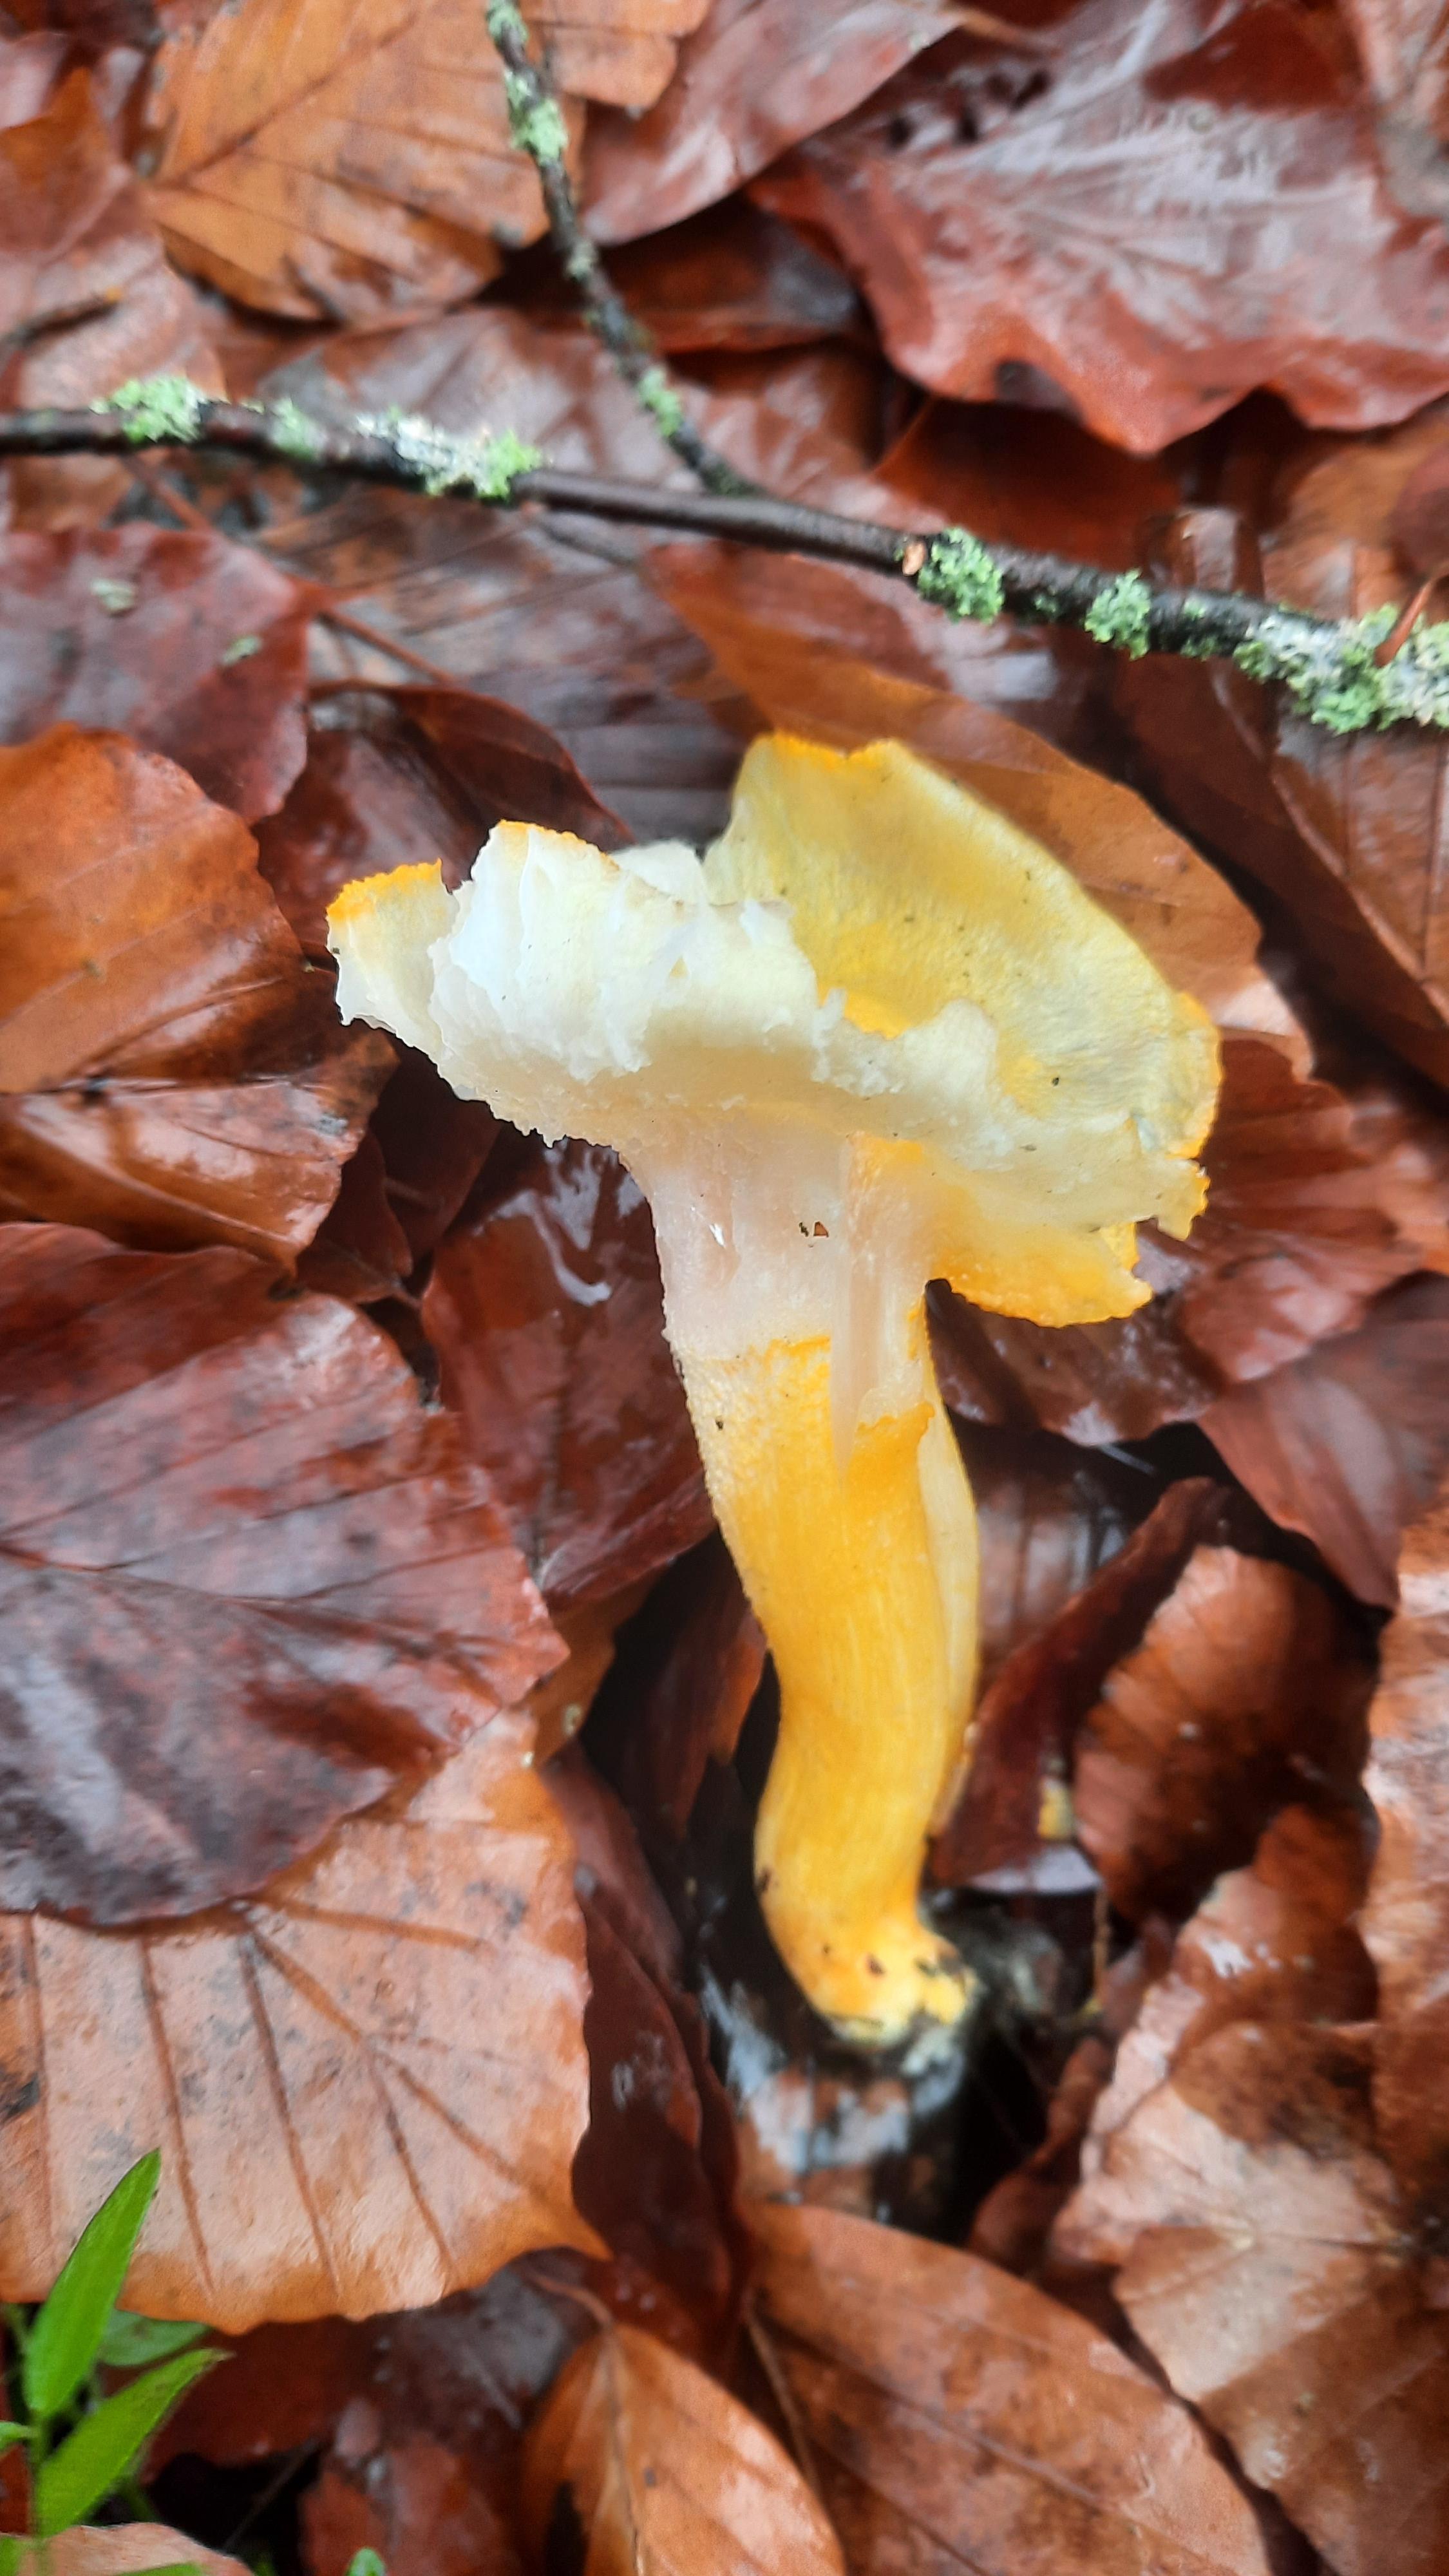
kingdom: Fungi
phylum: Basidiomycota
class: Agaricomycetes
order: Agaricales
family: Hygrophoraceae
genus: Hygrophorus
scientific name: Hygrophorus chrysodon
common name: gulfnugget sneglehat
